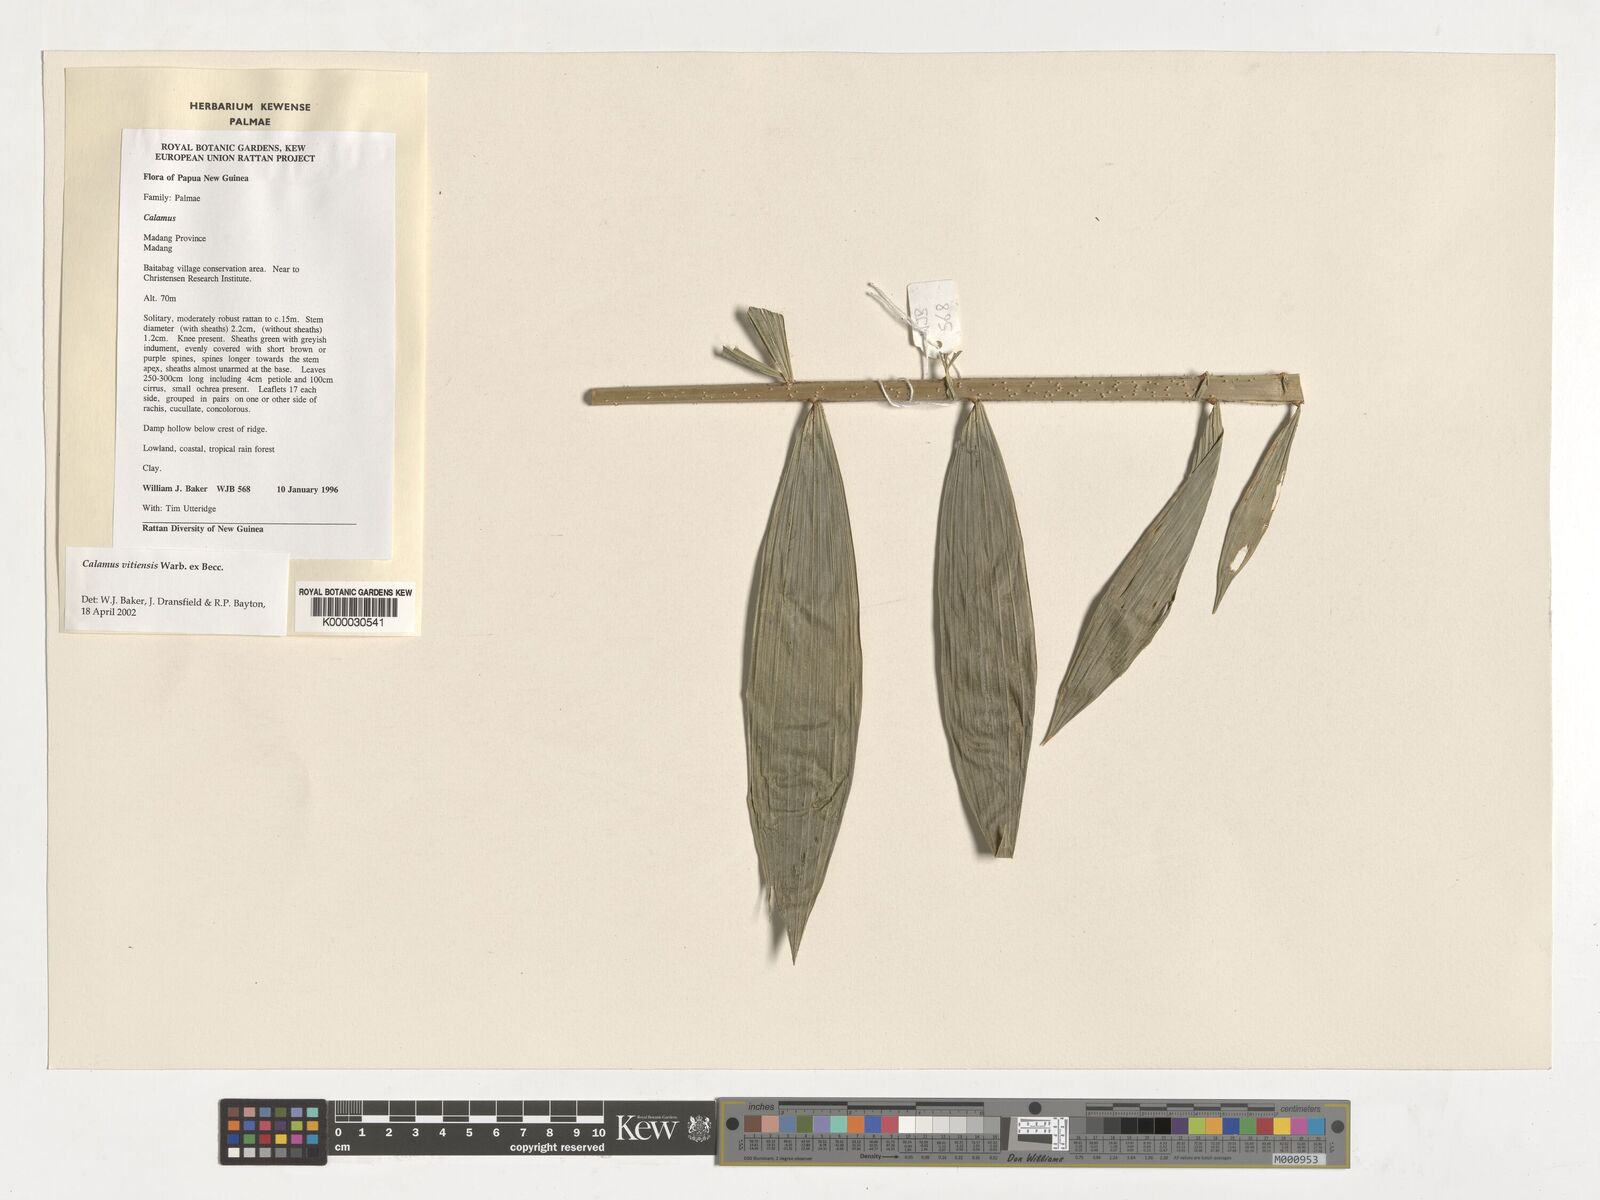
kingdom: Plantae
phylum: Tracheophyta
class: Liliopsida
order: Arecales
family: Arecaceae
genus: Calamus
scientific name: Calamus aruensis
